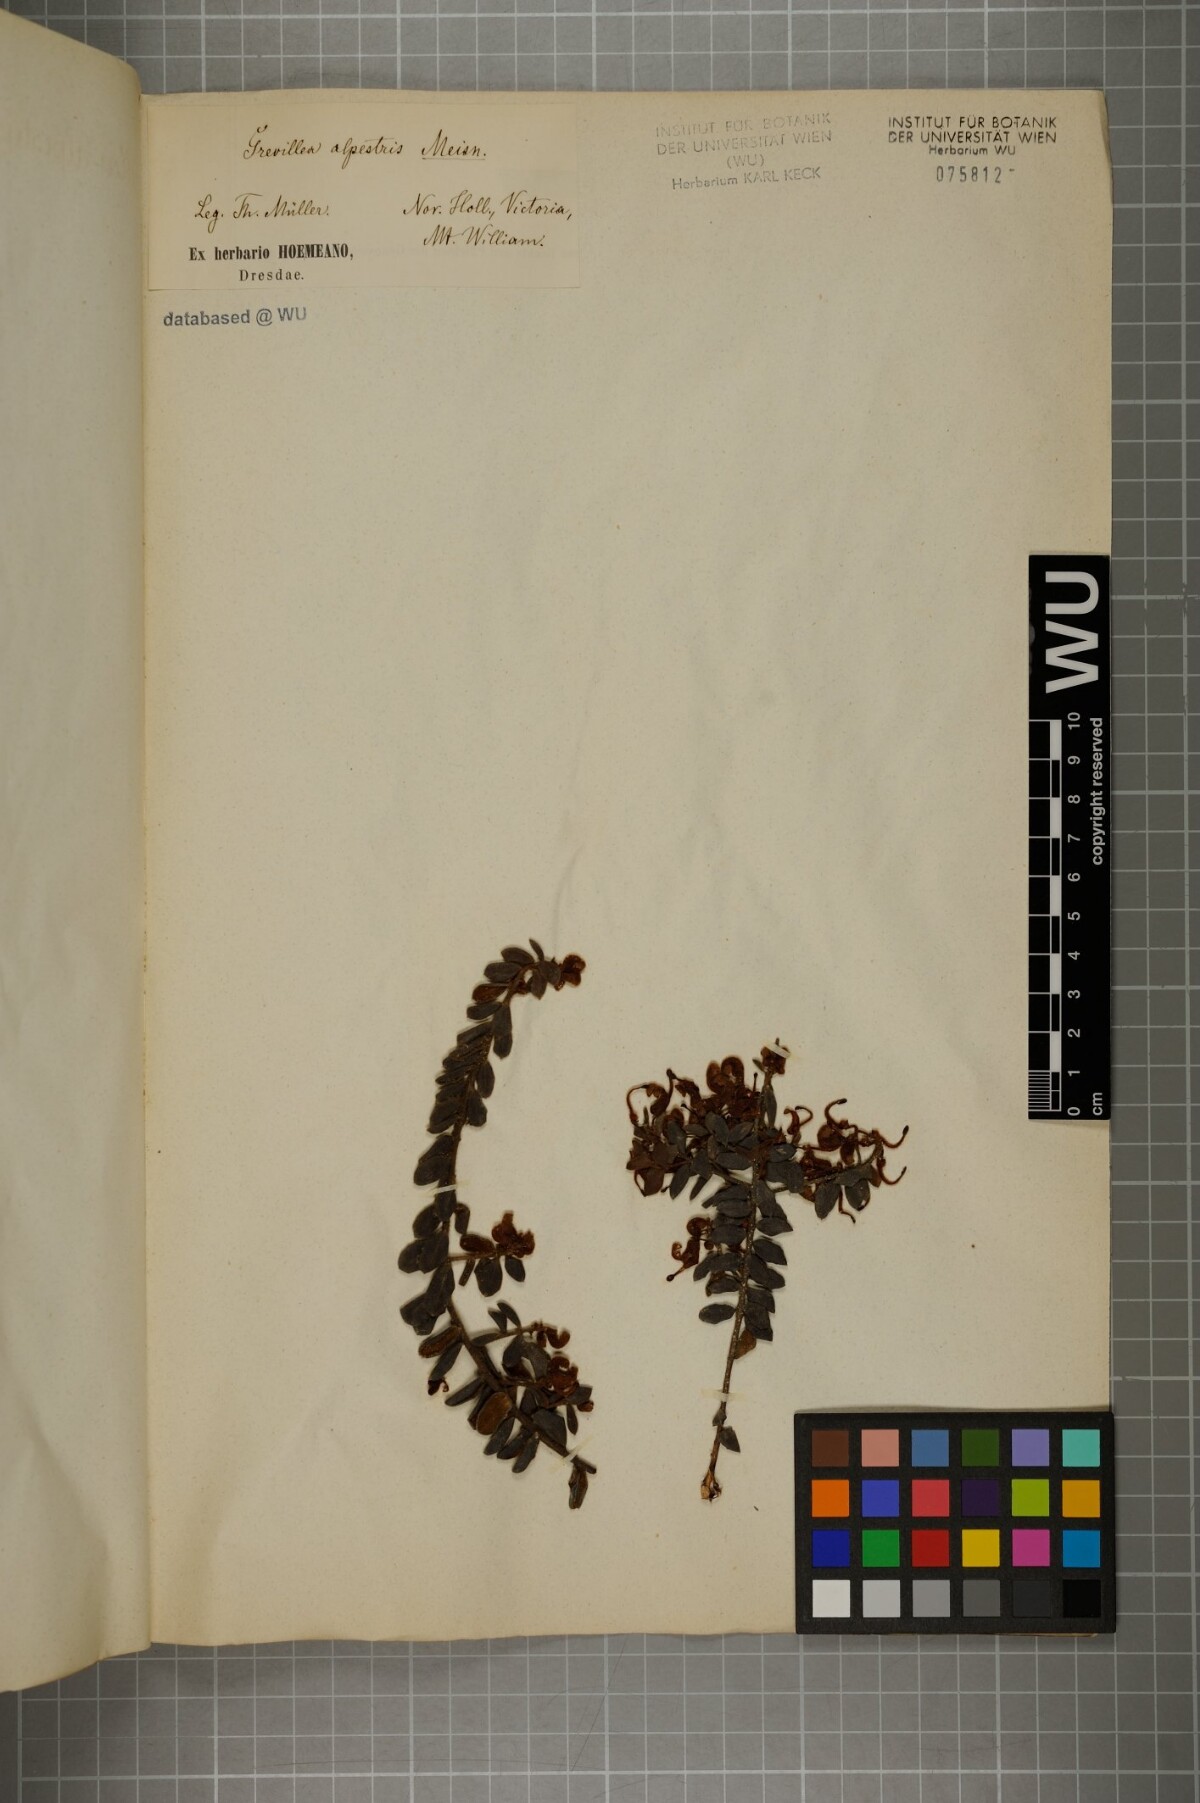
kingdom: Plantae
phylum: Tracheophyta
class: Magnoliopsida
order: Proteales
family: Proteaceae
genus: Grevillea
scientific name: Grevillea alpina
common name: Catclaws grevillea
